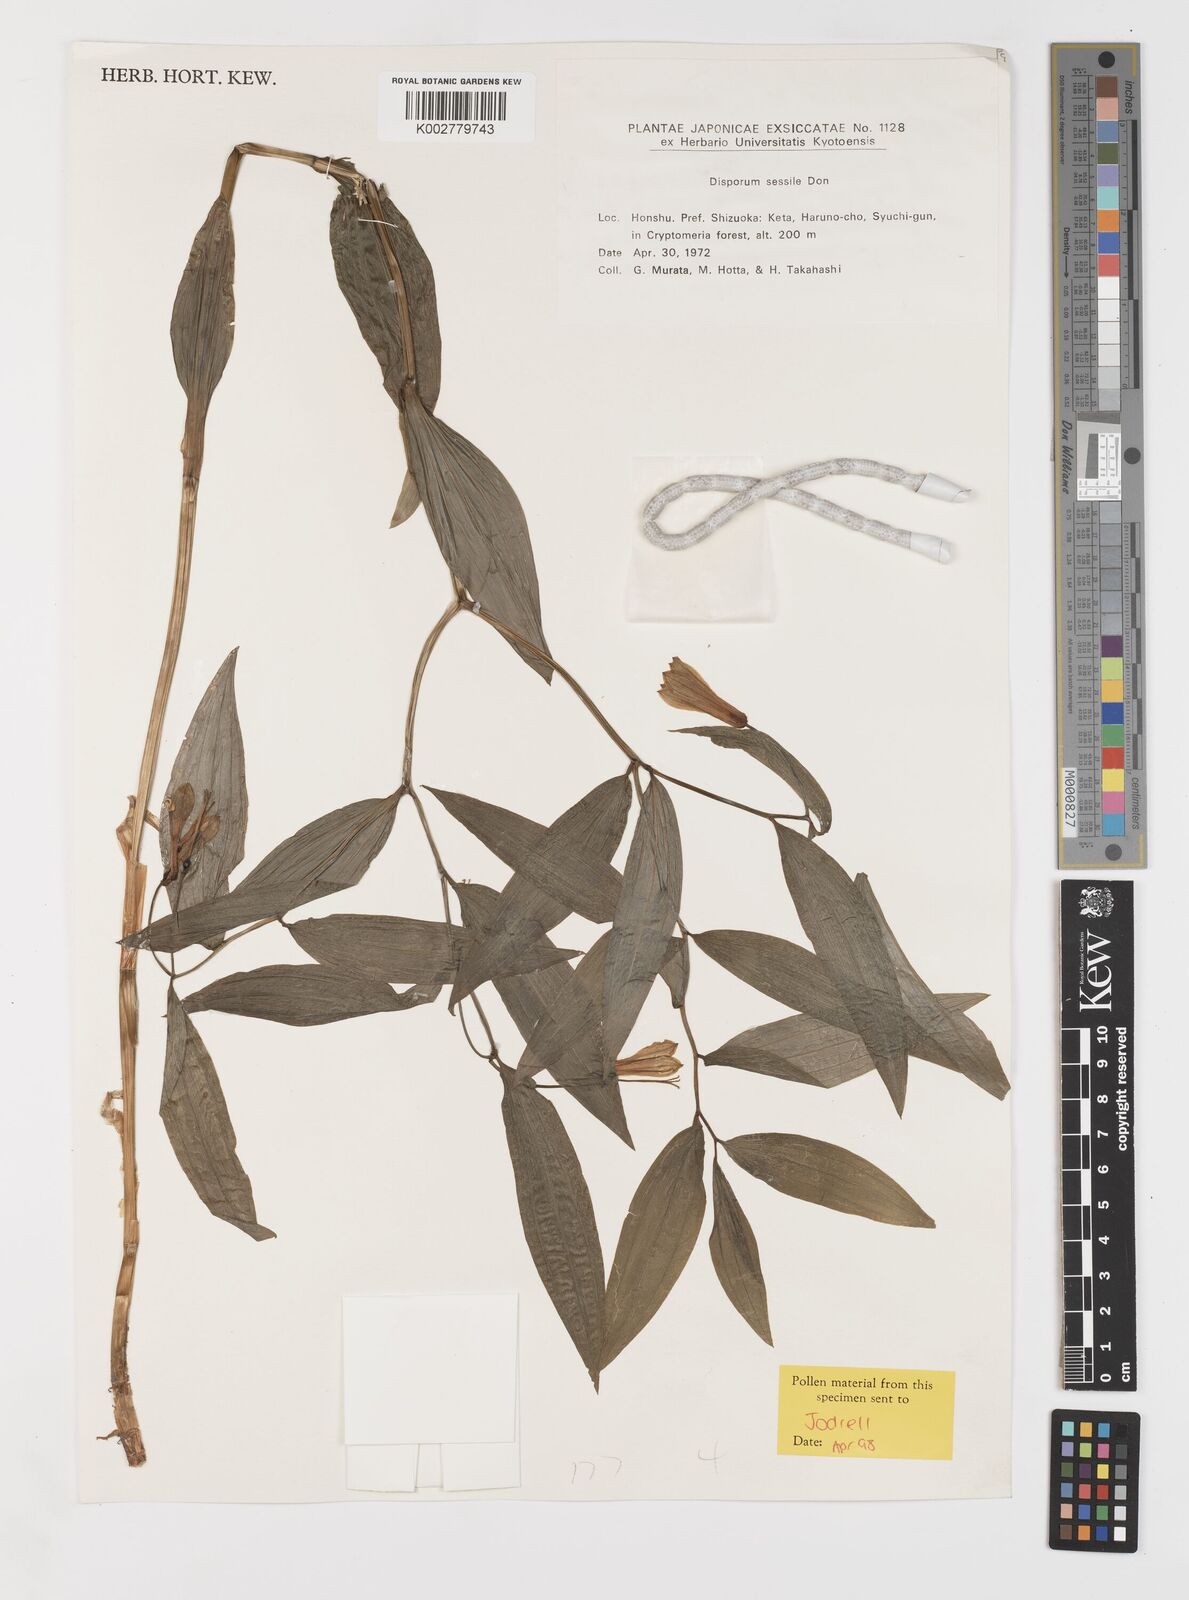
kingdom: Plantae
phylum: Tracheophyta
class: Liliopsida
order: Liliales
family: Colchicaceae
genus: Disporum
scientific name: Disporum sessile
